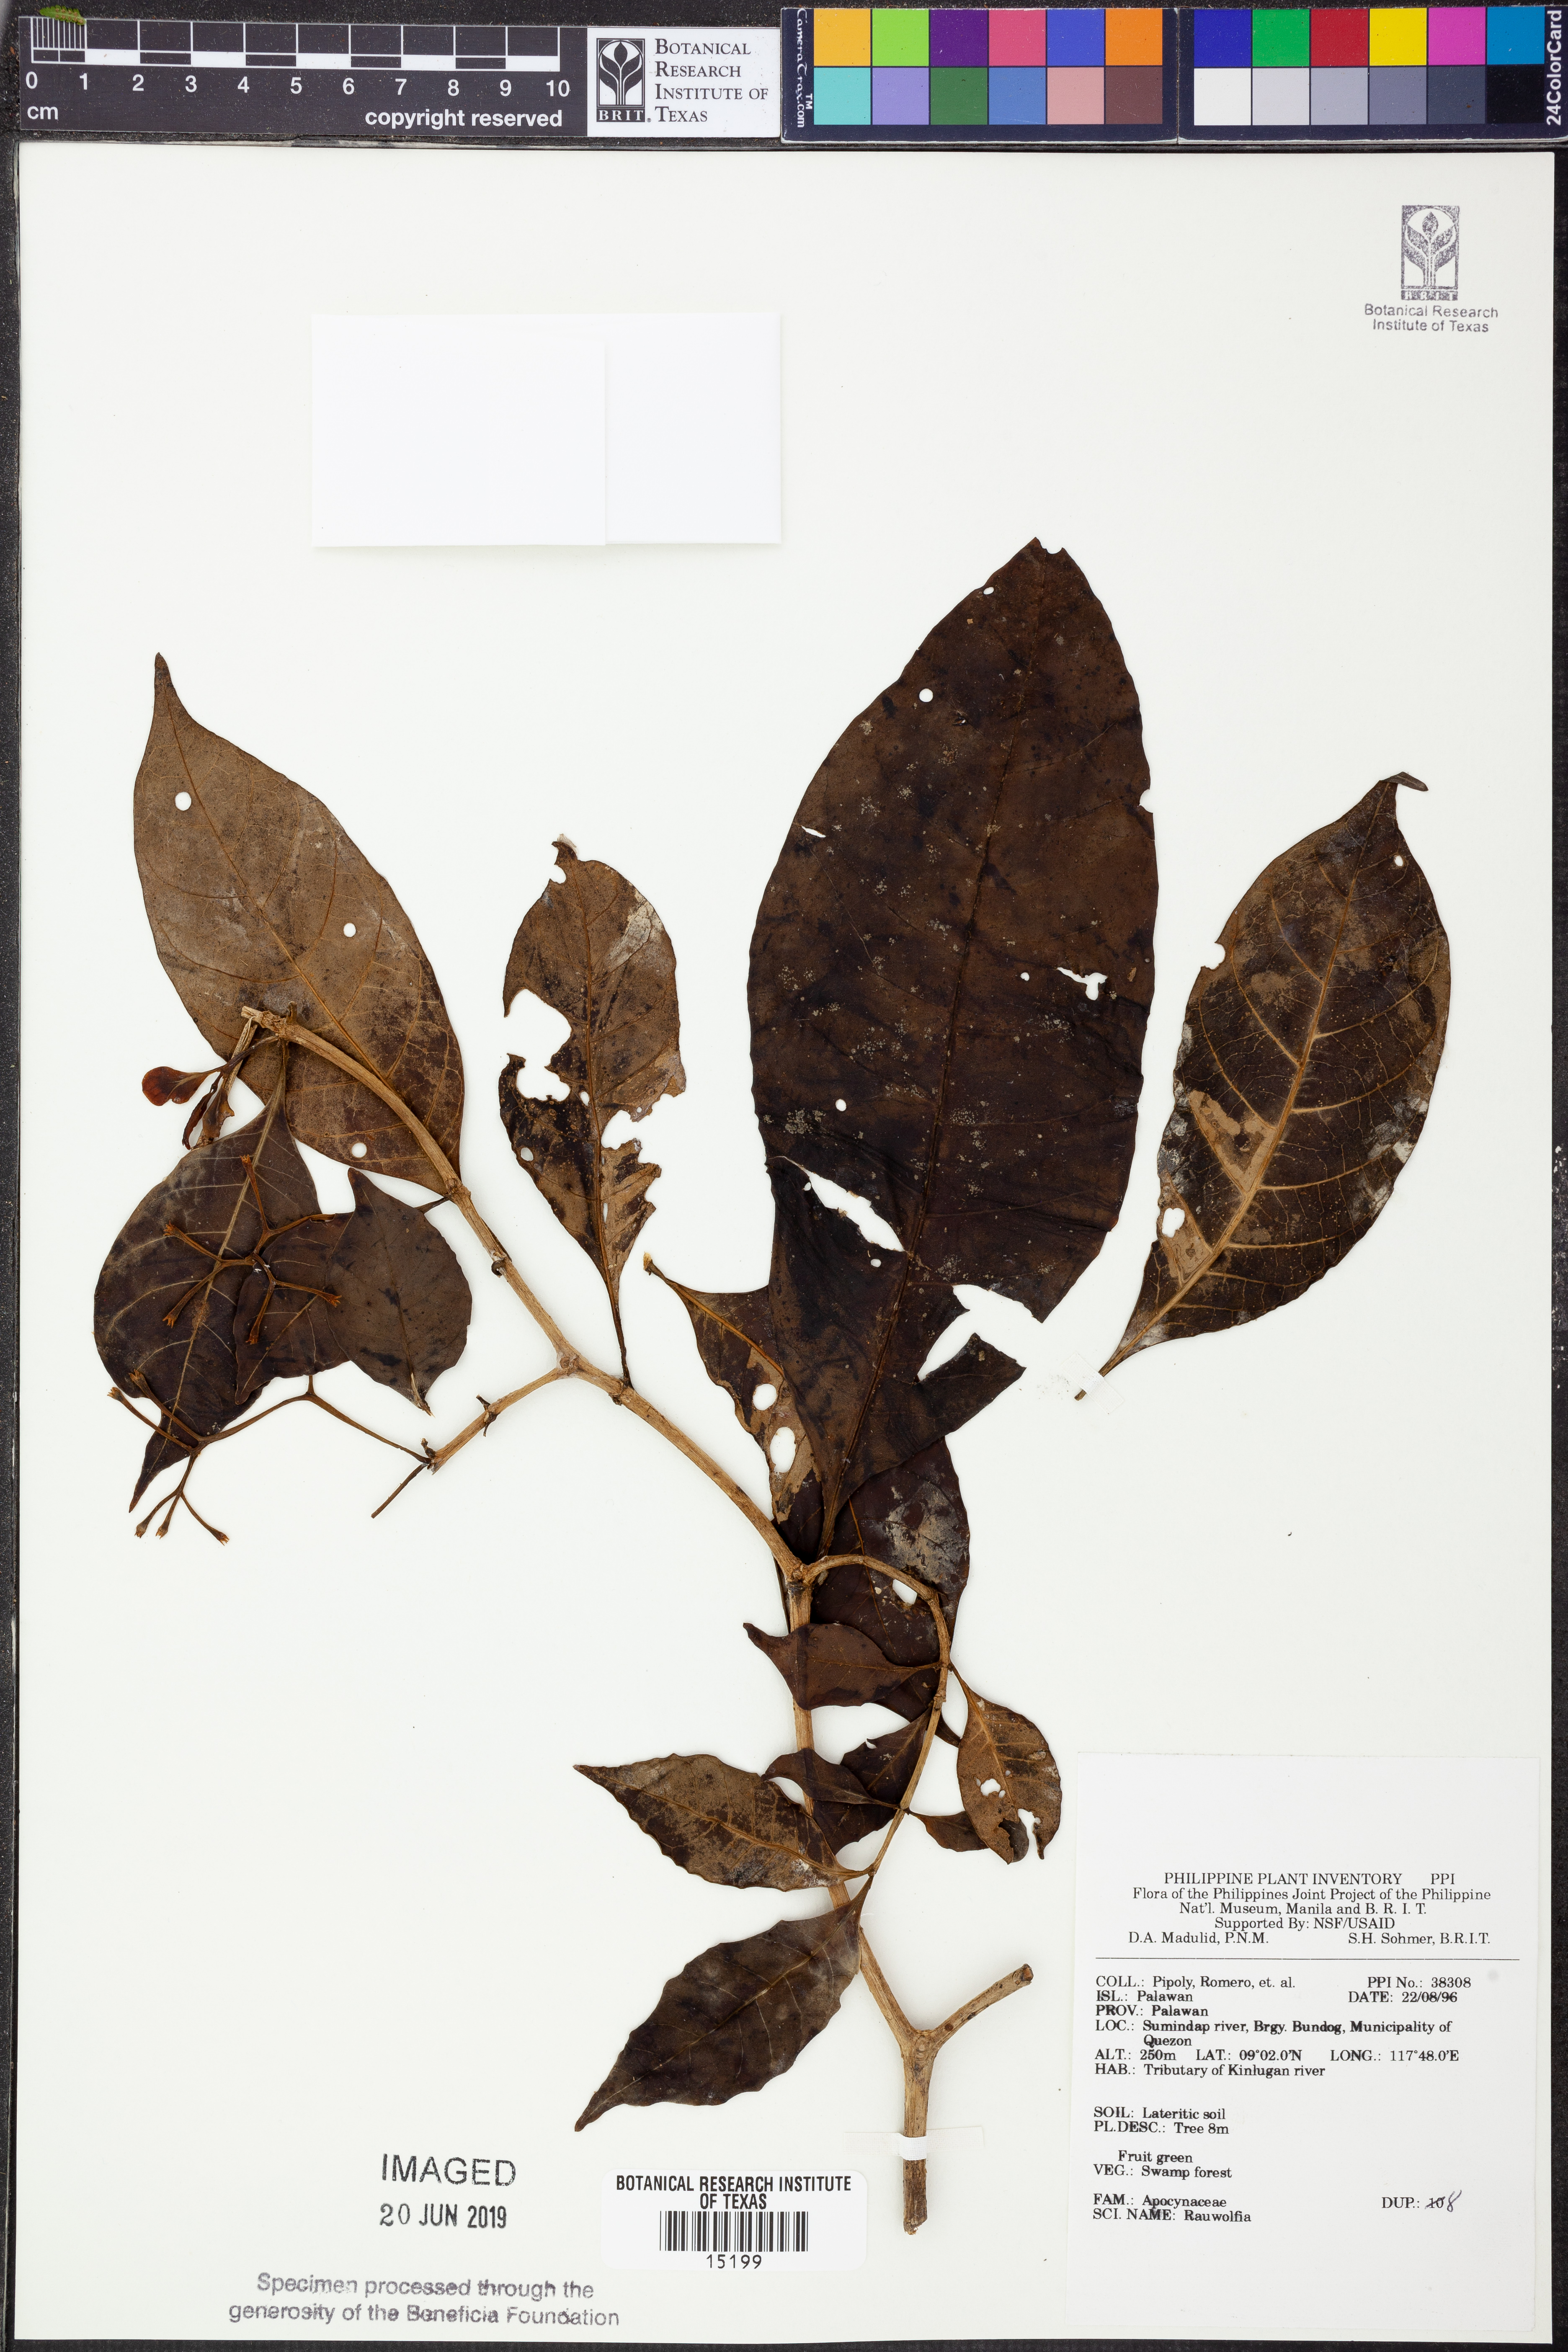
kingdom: Plantae
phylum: Tracheophyta
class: Magnoliopsida
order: Lamiales
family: Verbenaceae
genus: Citharexylum
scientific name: Citharexylum
